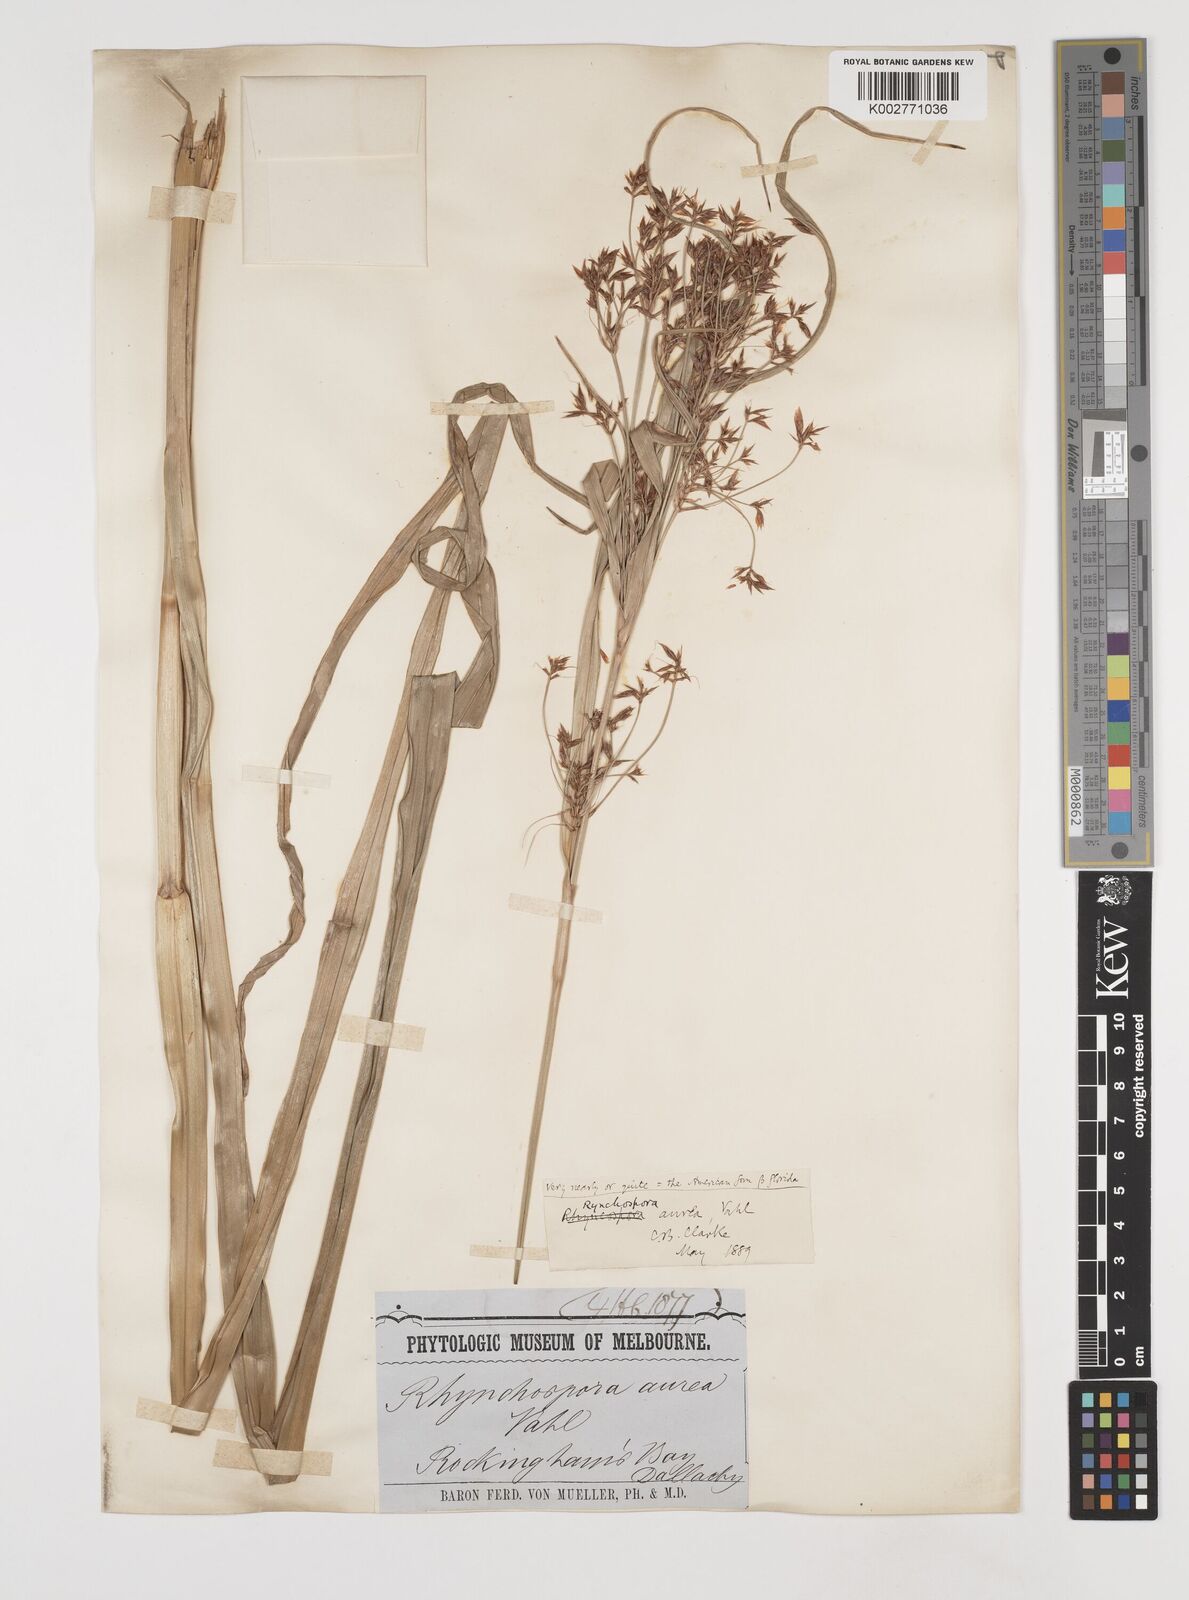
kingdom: Plantae
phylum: Tracheophyta
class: Liliopsida
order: Poales
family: Cyperaceae
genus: Rhynchospora
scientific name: Rhynchospora corymbosa
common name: Golden beak sedge
